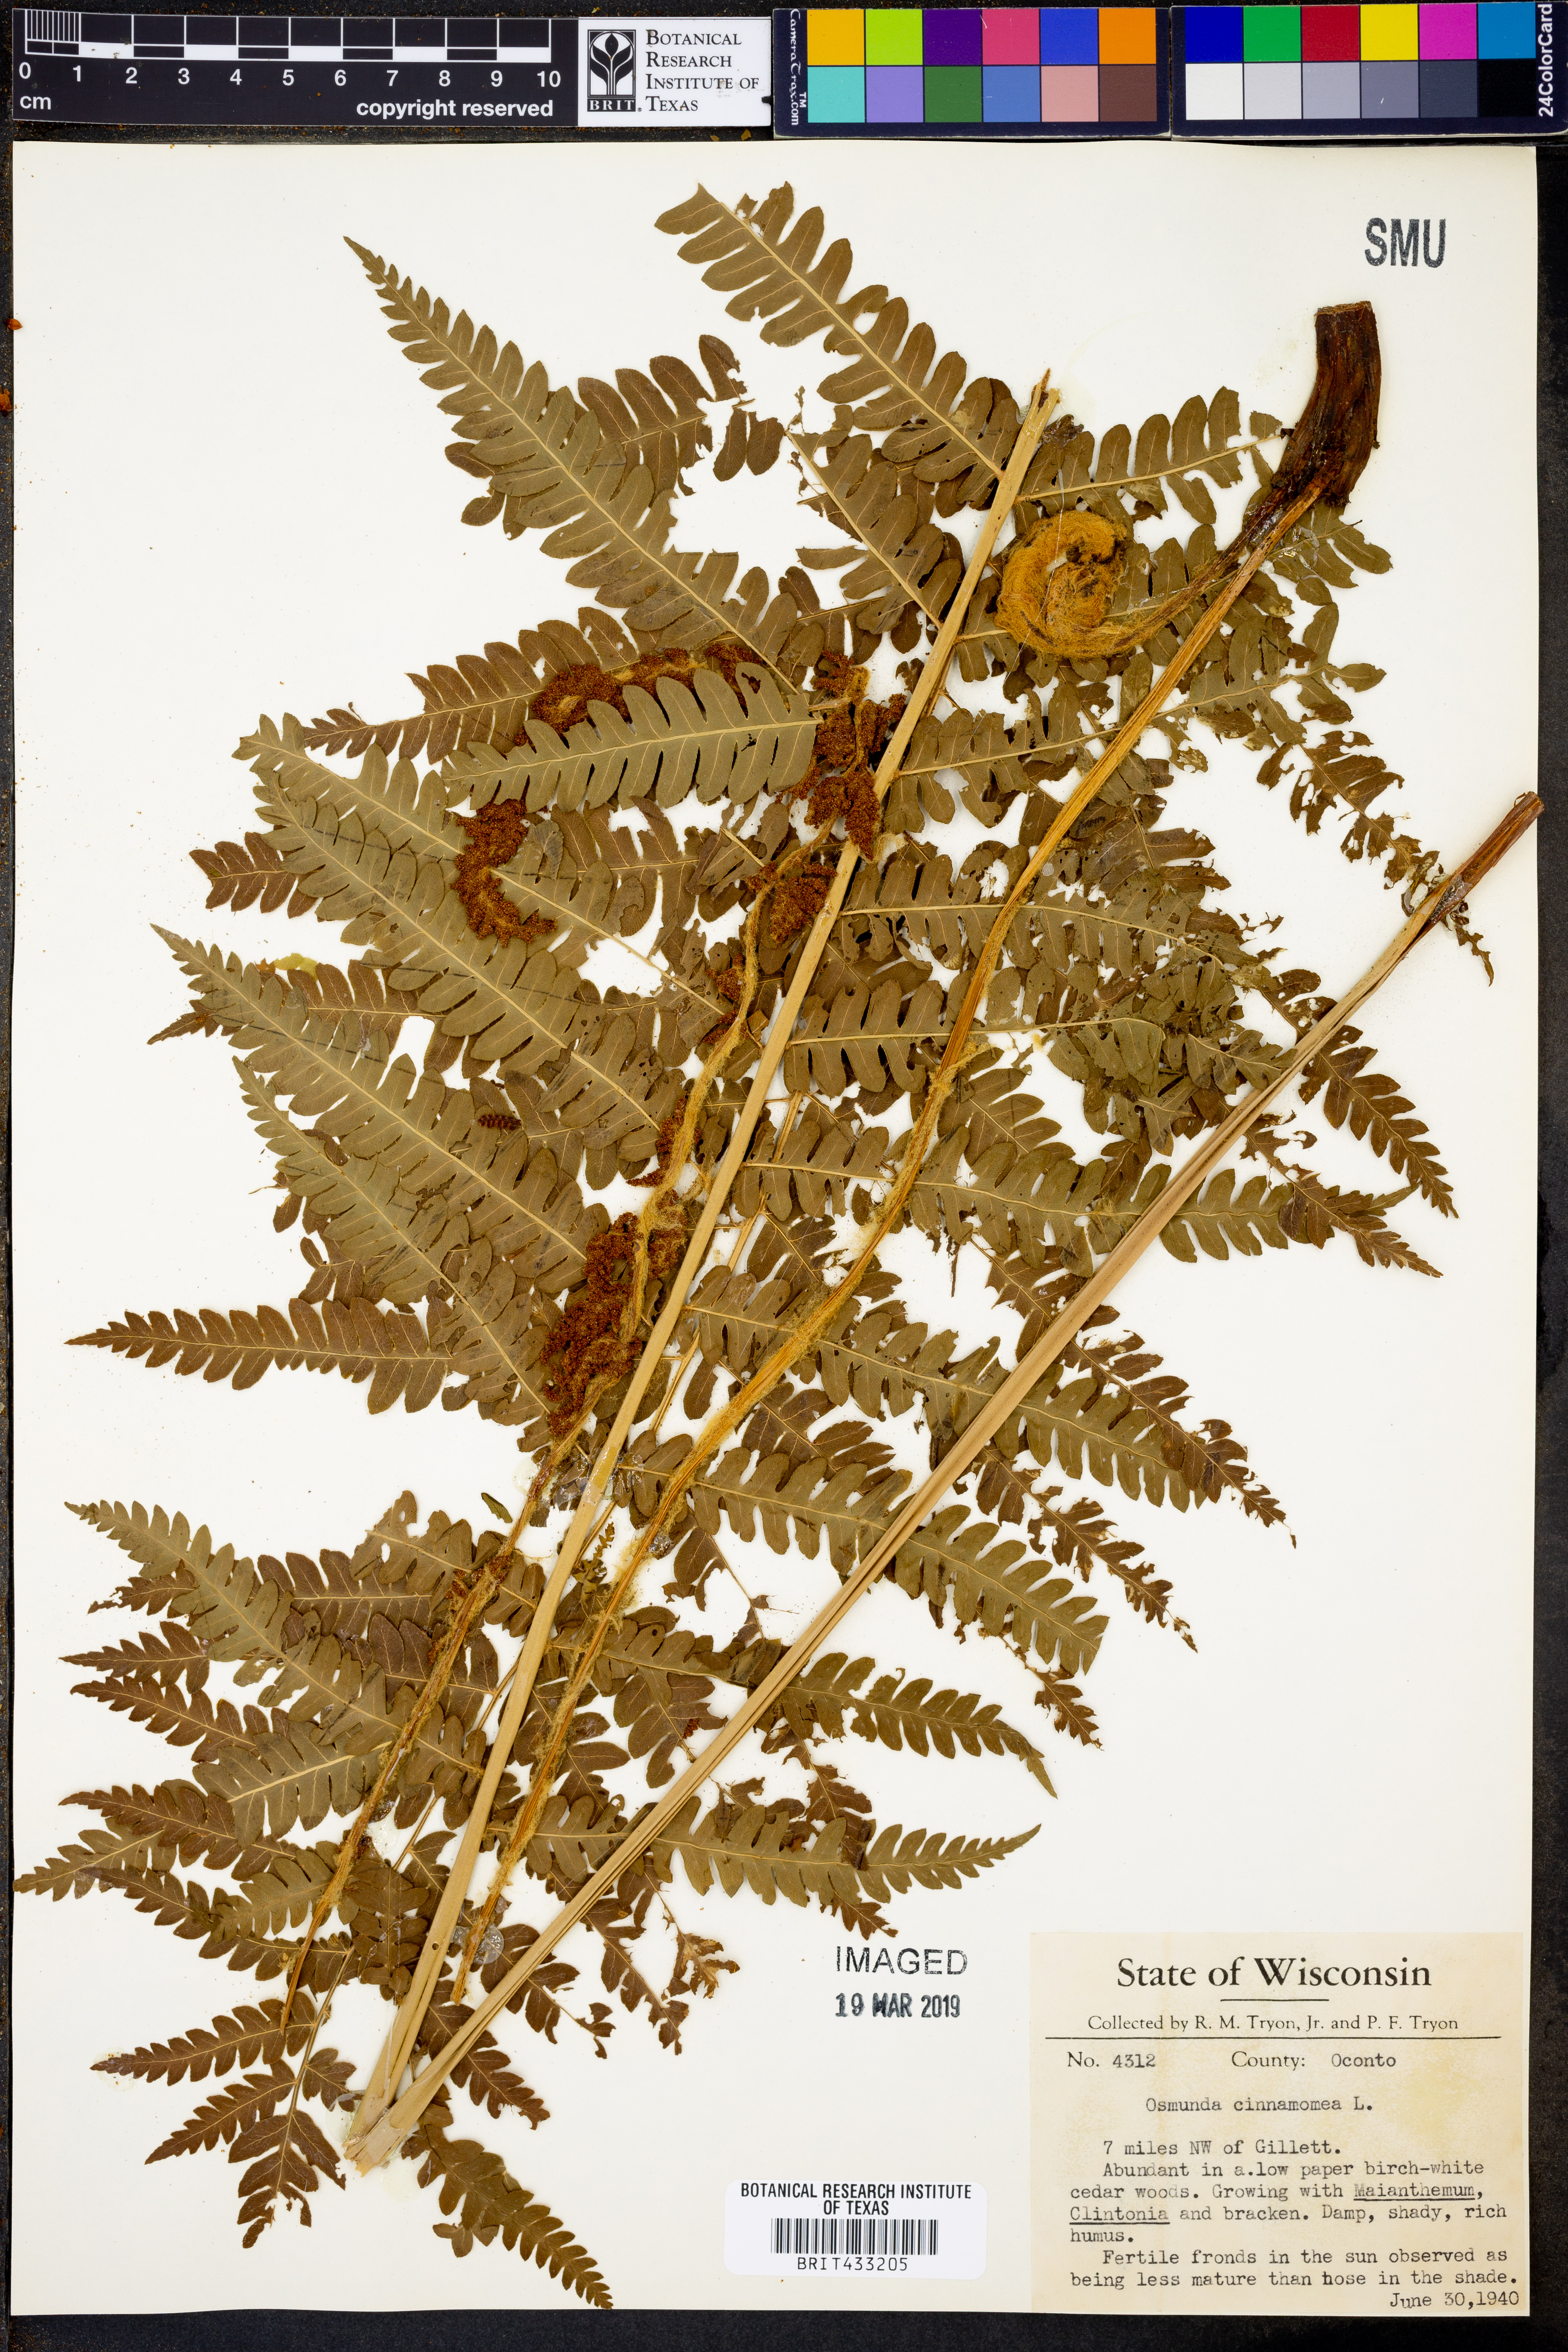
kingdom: Plantae
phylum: Tracheophyta
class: Polypodiopsida
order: Osmundales
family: Osmundaceae
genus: Osmundastrum
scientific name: Osmundastrum cinnamomeum
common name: Cinnamon fern
